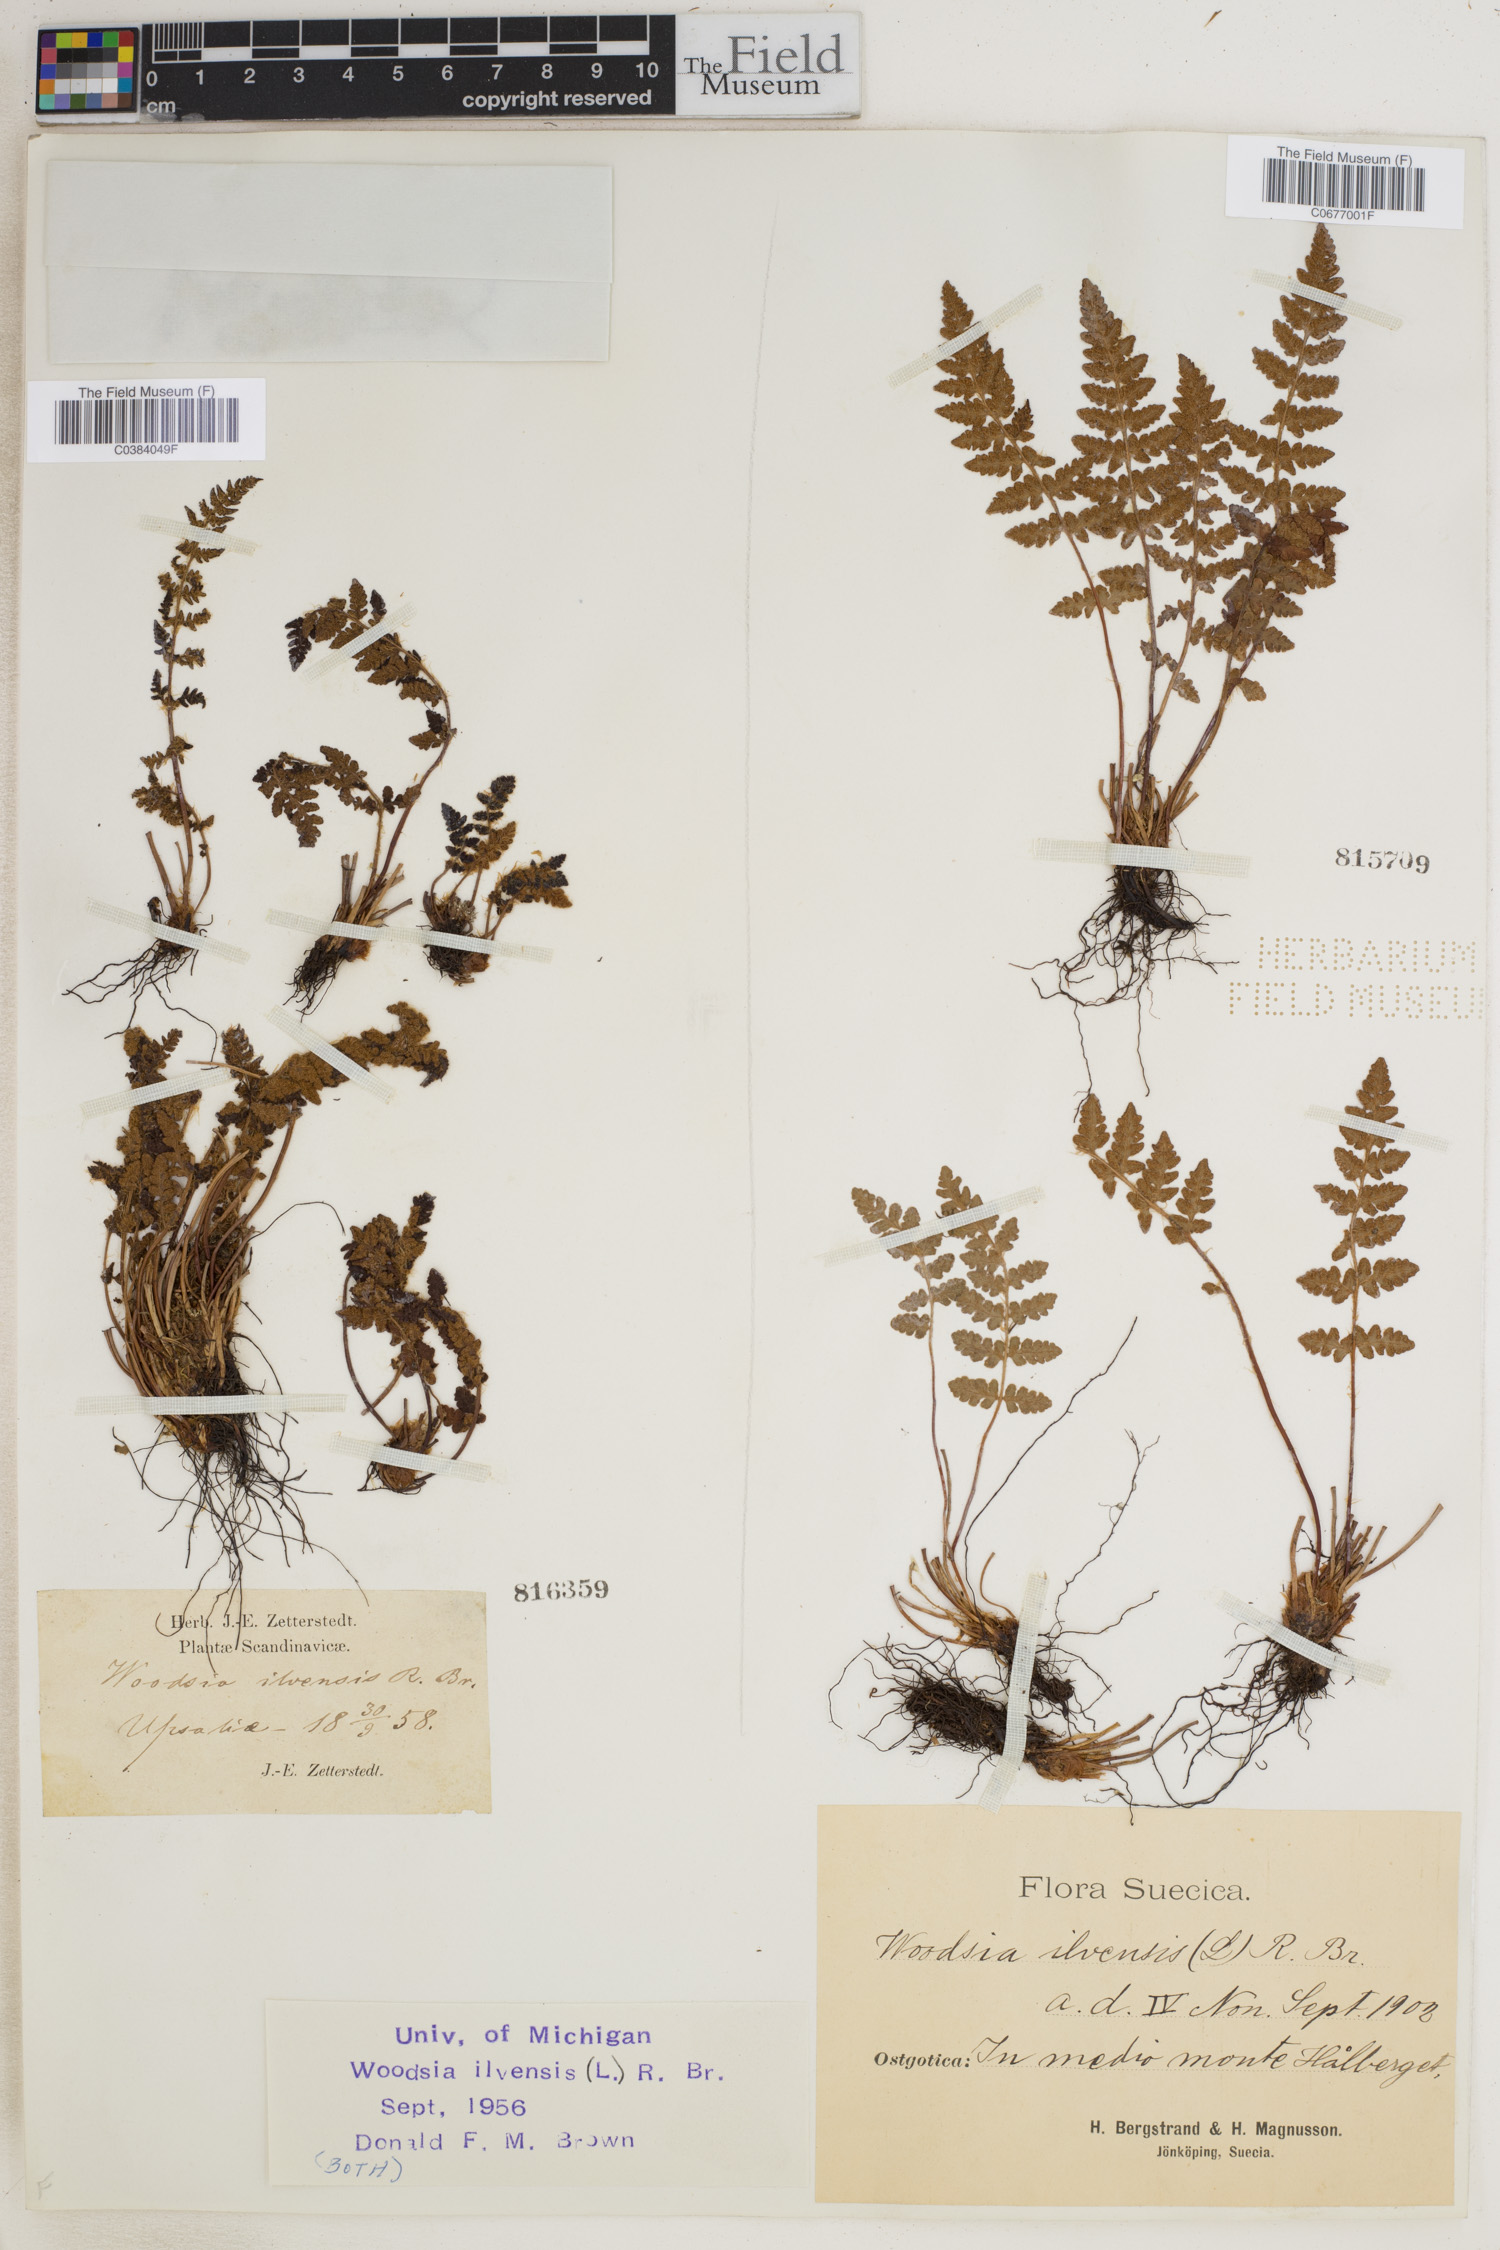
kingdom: Plantae
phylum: Tracheophyta
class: Polypodiopsida
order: Polypodiales
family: Woodsiaceae
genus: Woodsia
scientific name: Woodsia ilvensis
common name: Fragrant woodsia
